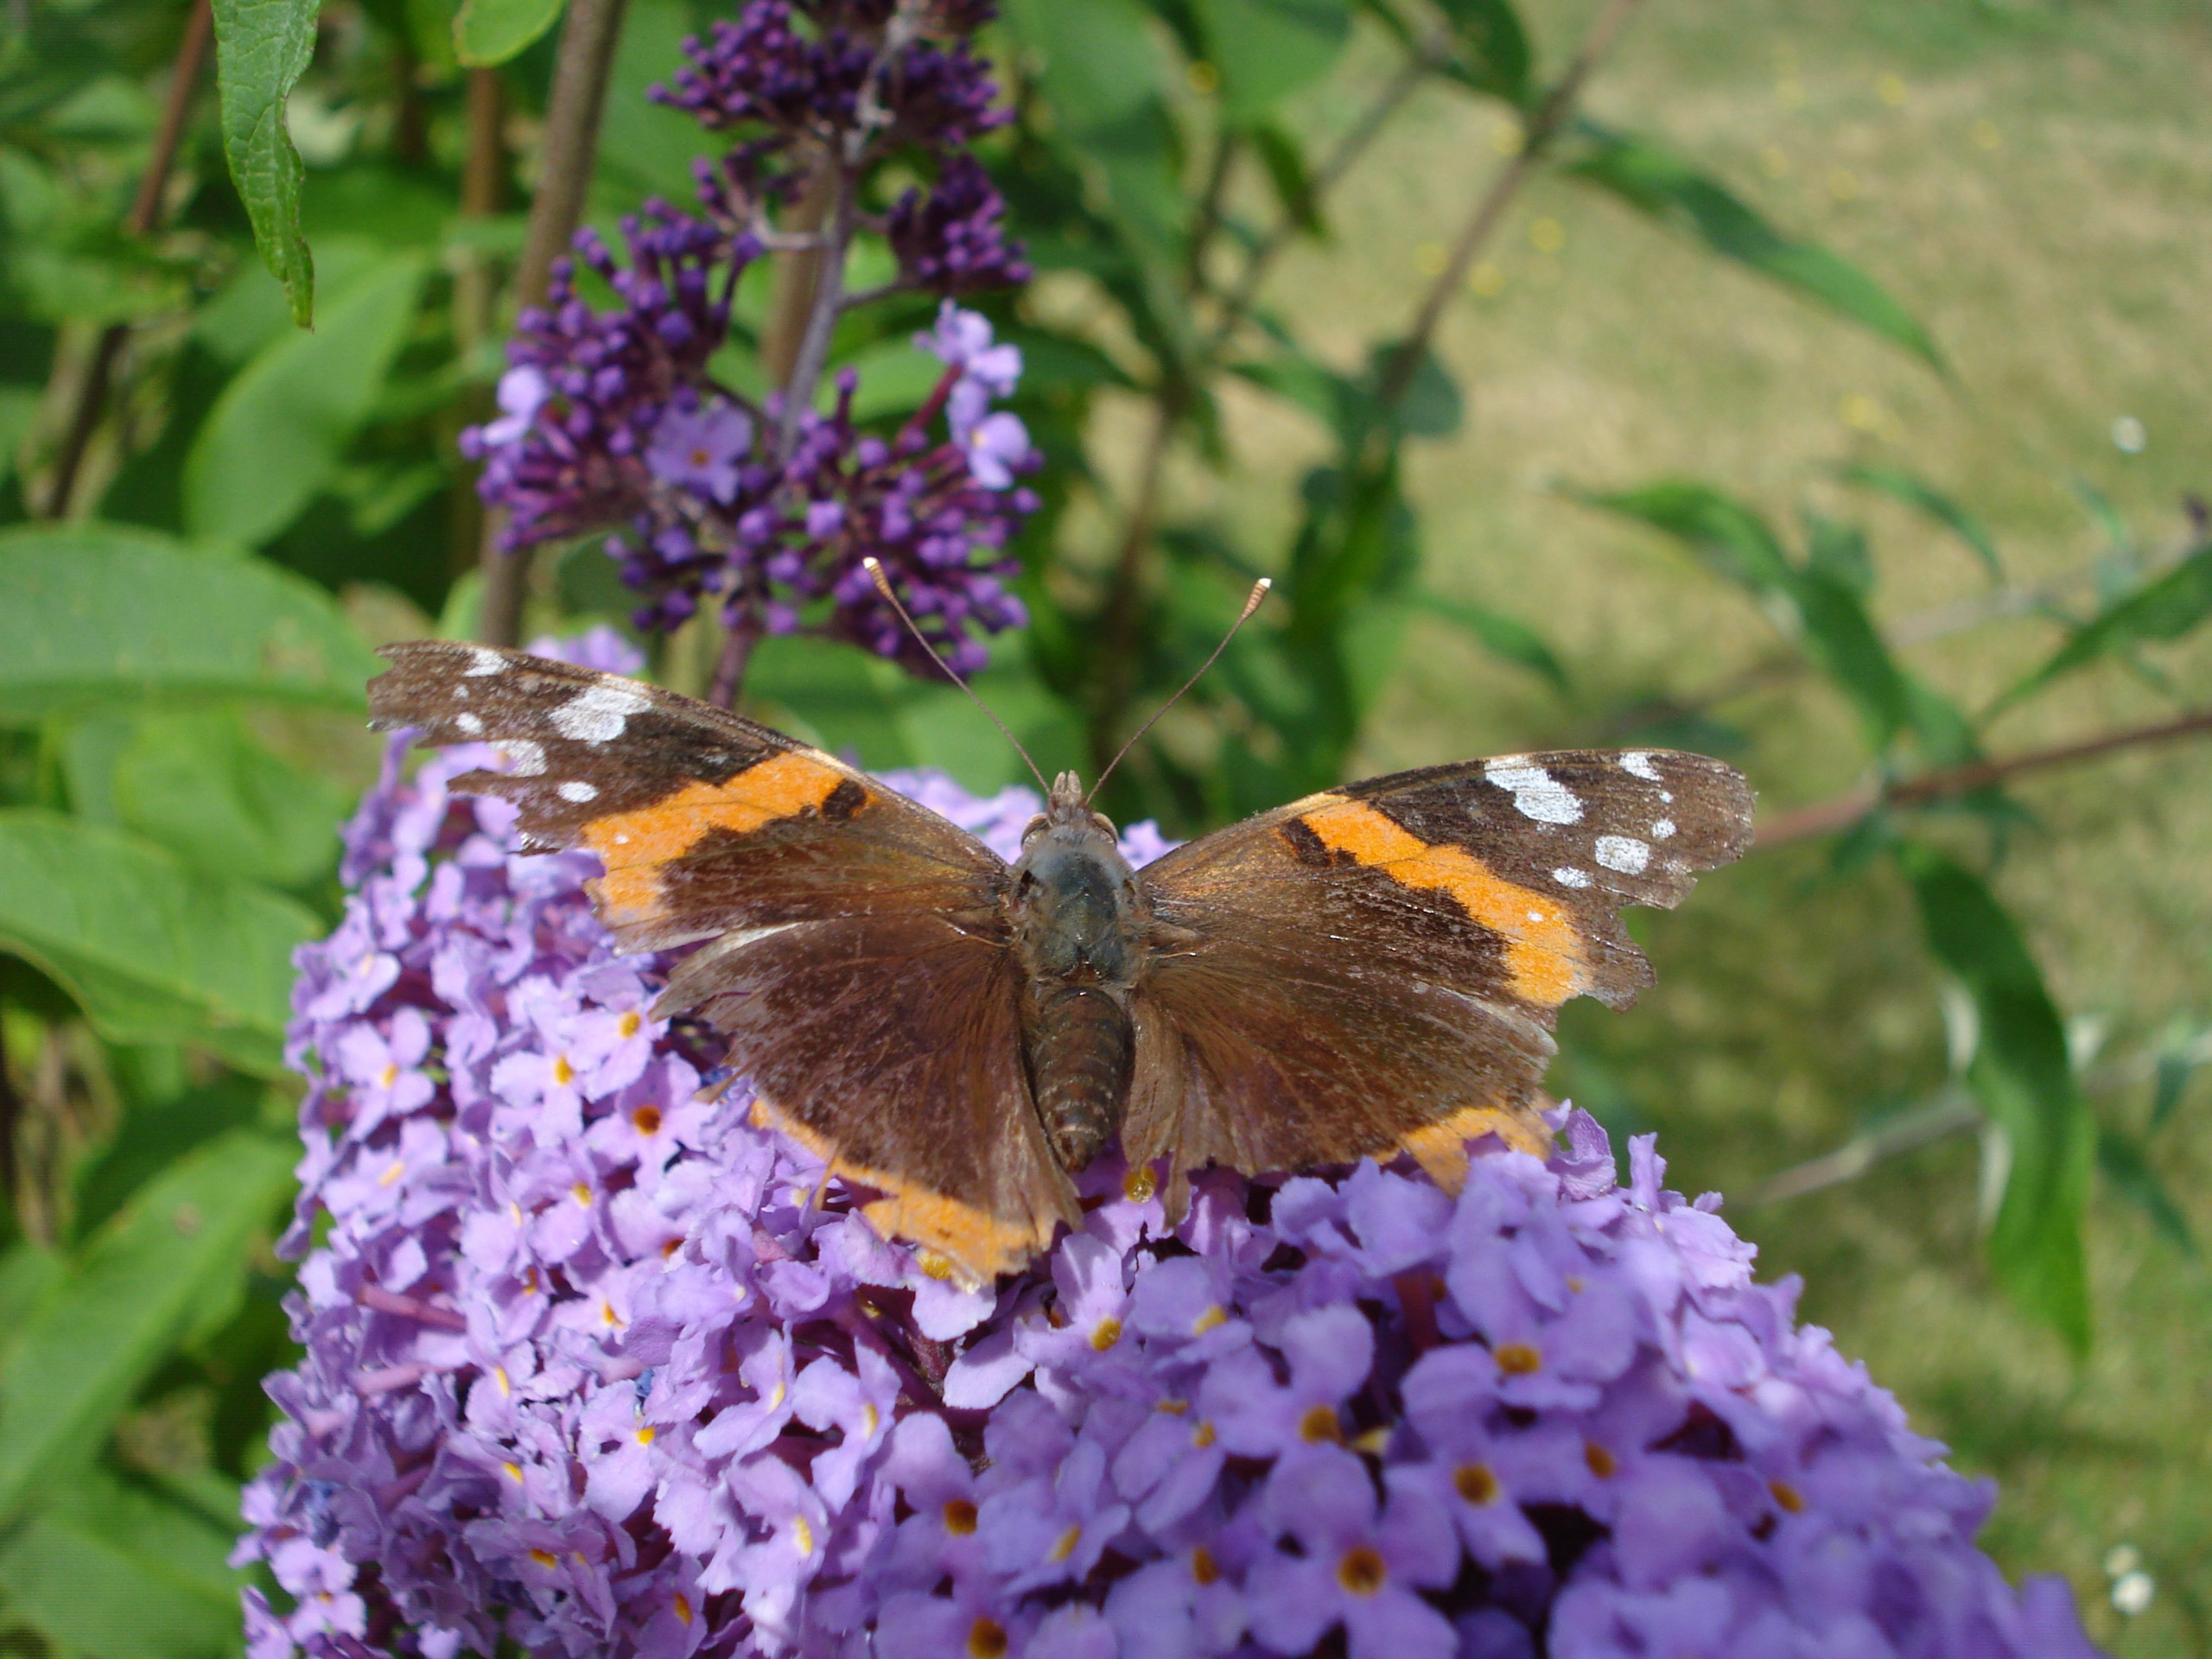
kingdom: Animalia
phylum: Arthropoda
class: Insecta
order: Lepidoptera
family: Nymphalidae
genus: Vanessa
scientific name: Vanessa atalanta
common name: Admiral
